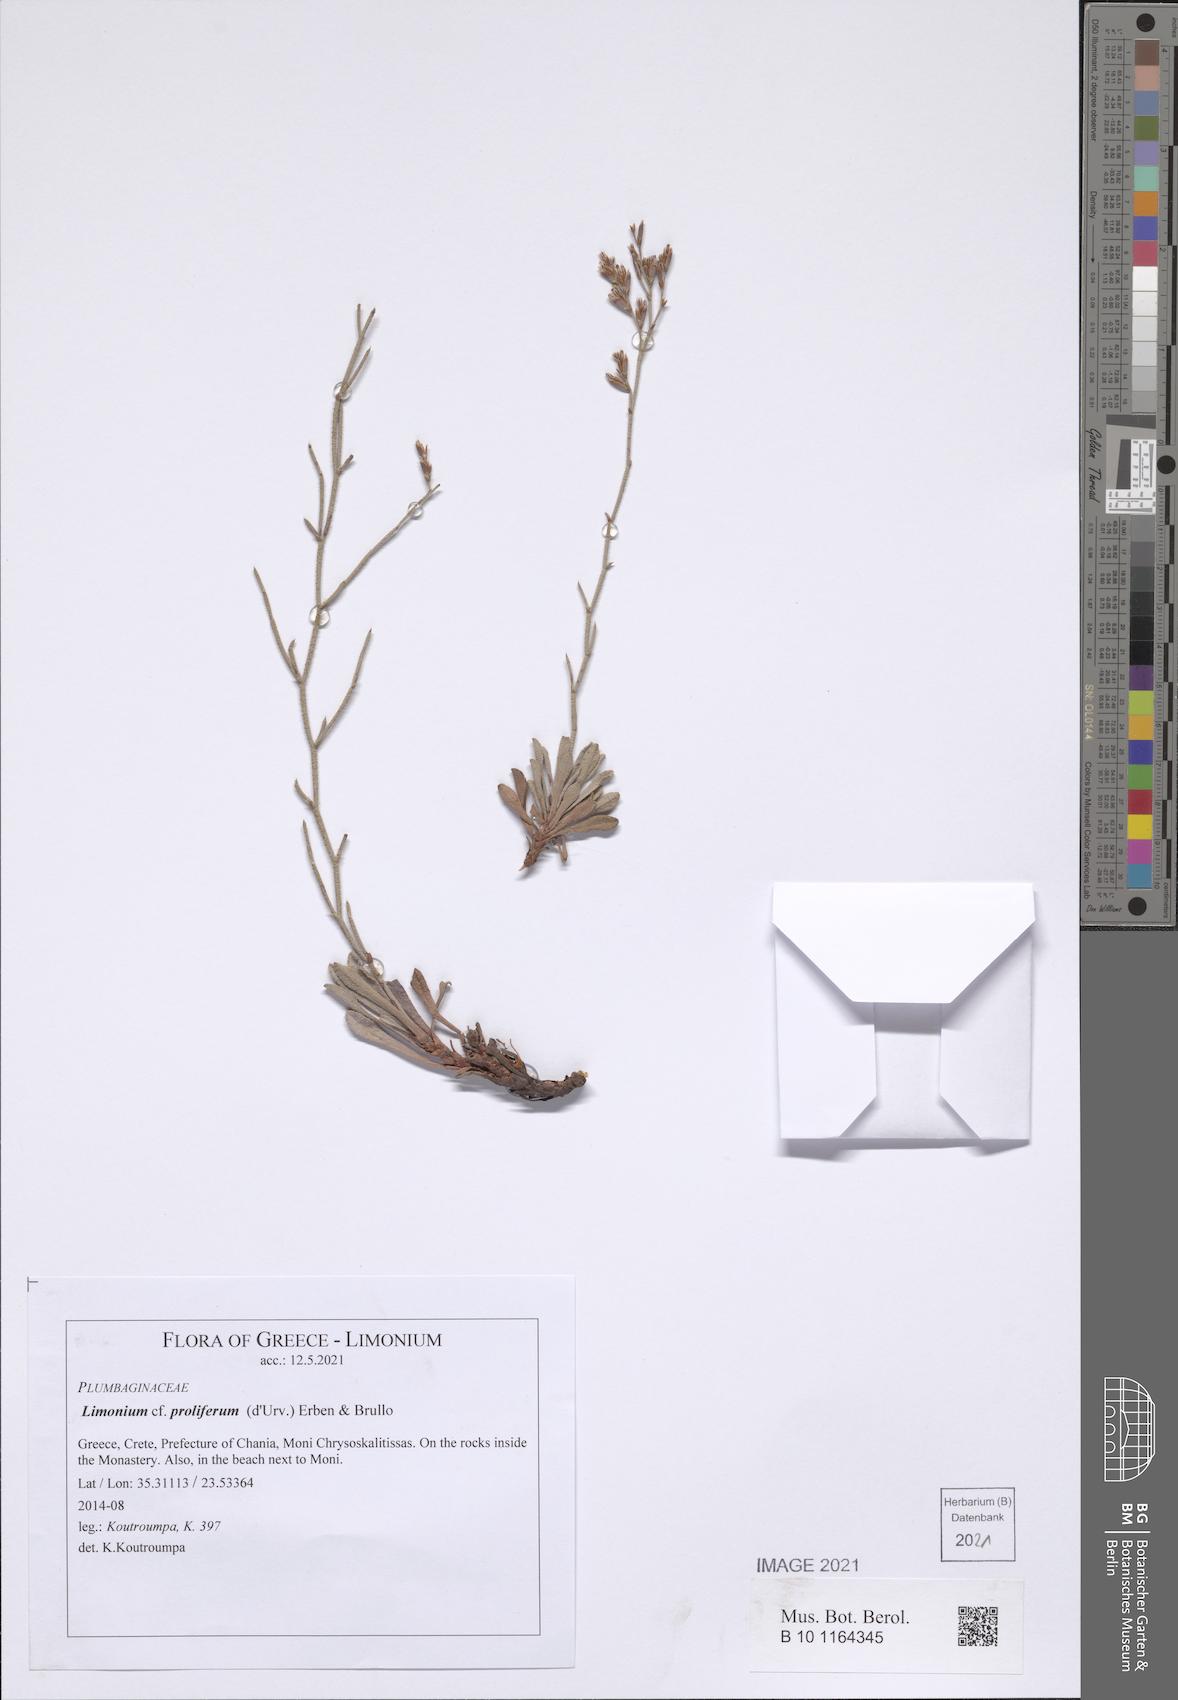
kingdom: Plantae
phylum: Tracheophyta
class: Magnoliopsida
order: Caryophyllales
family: Plumbaginaceae
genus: Limonium
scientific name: Limonium proliferum
